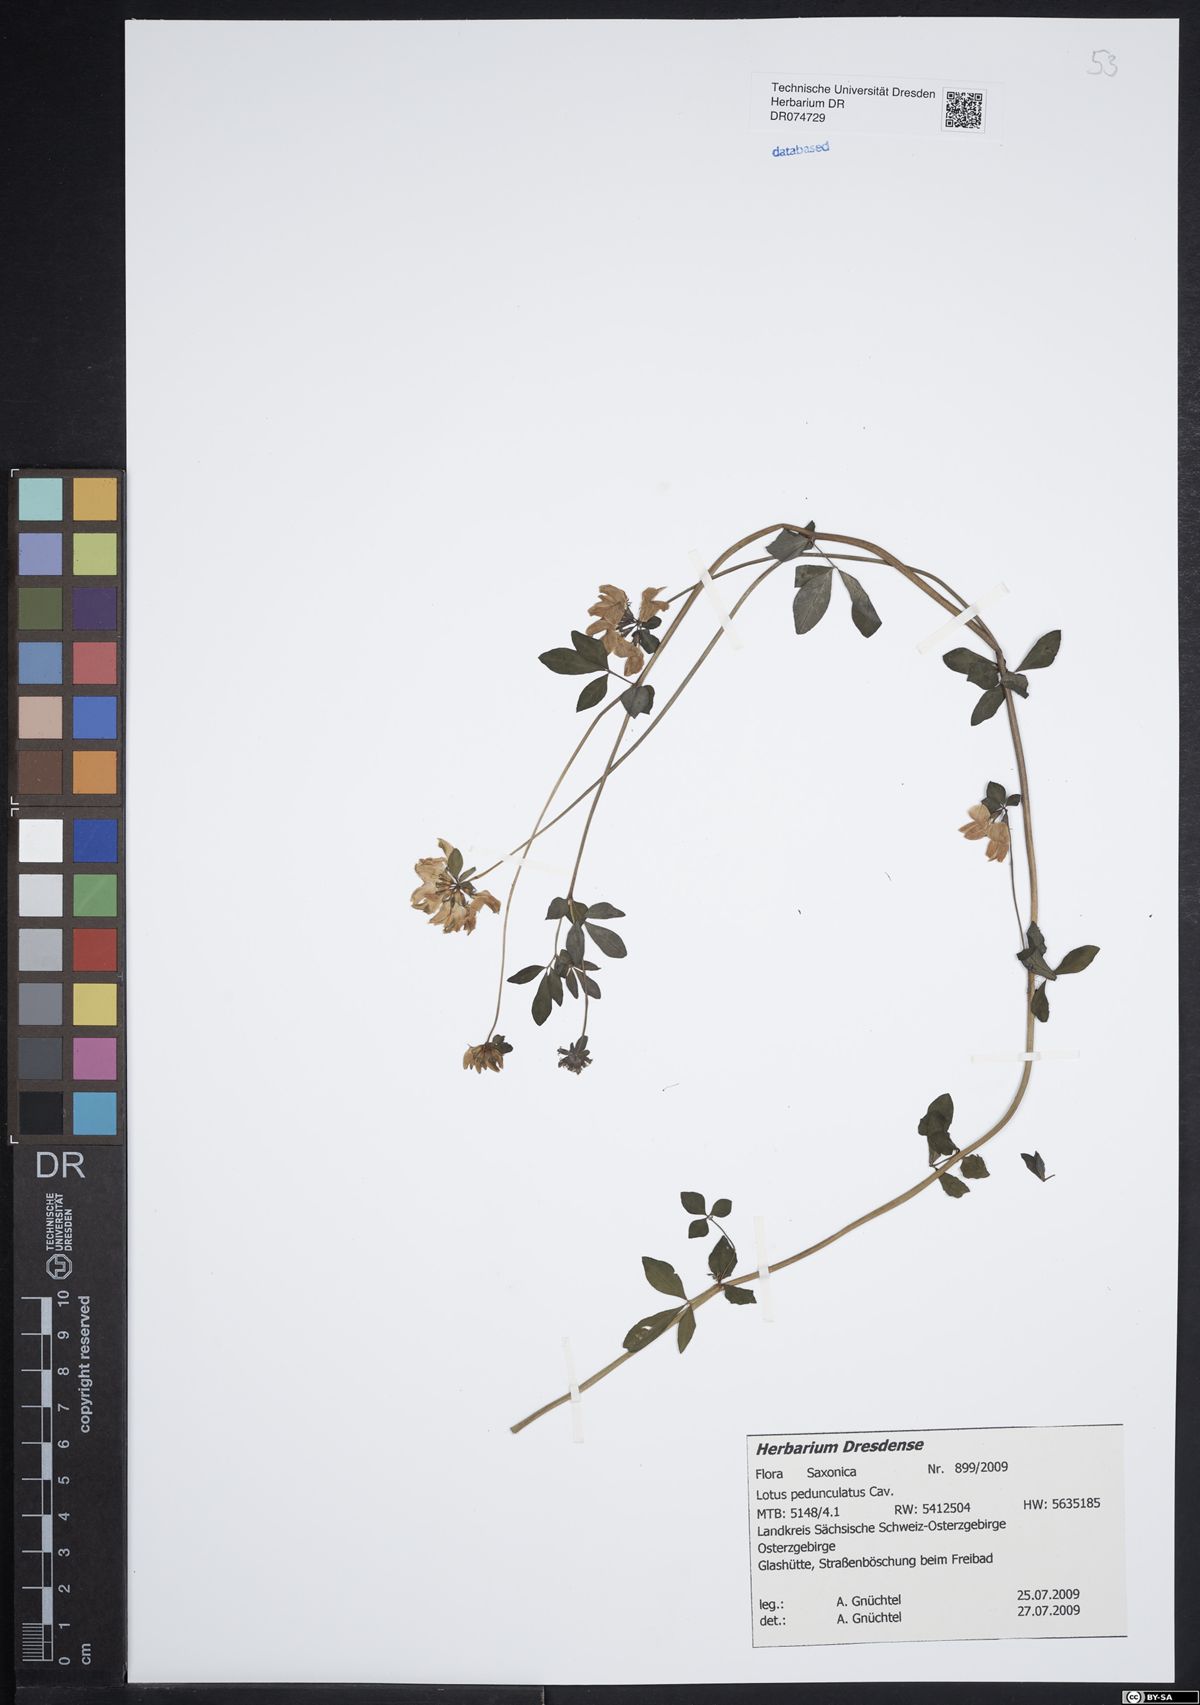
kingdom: Plantae
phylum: Tracheophyta
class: Magnoliopsida
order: Fabales
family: Fabaceae
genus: Lotus
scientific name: Lotus pedunculatus
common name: Greater birdsfoot-trefoil
